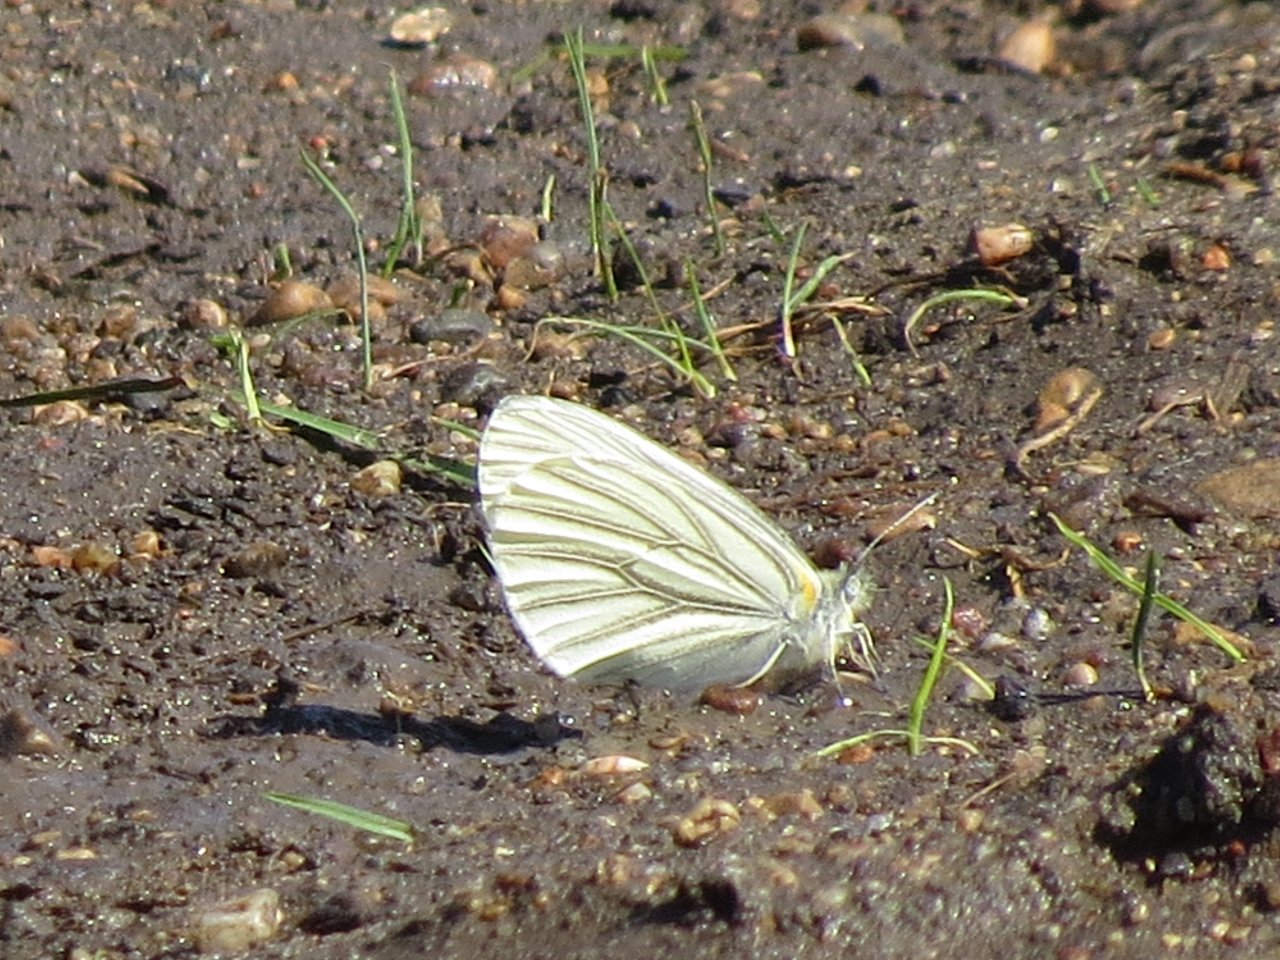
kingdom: Animalia
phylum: Arthropoda
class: Insecta
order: Lepidoptera
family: Pieridae
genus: Pieris
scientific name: Pieris oleracea
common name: Mustard White
